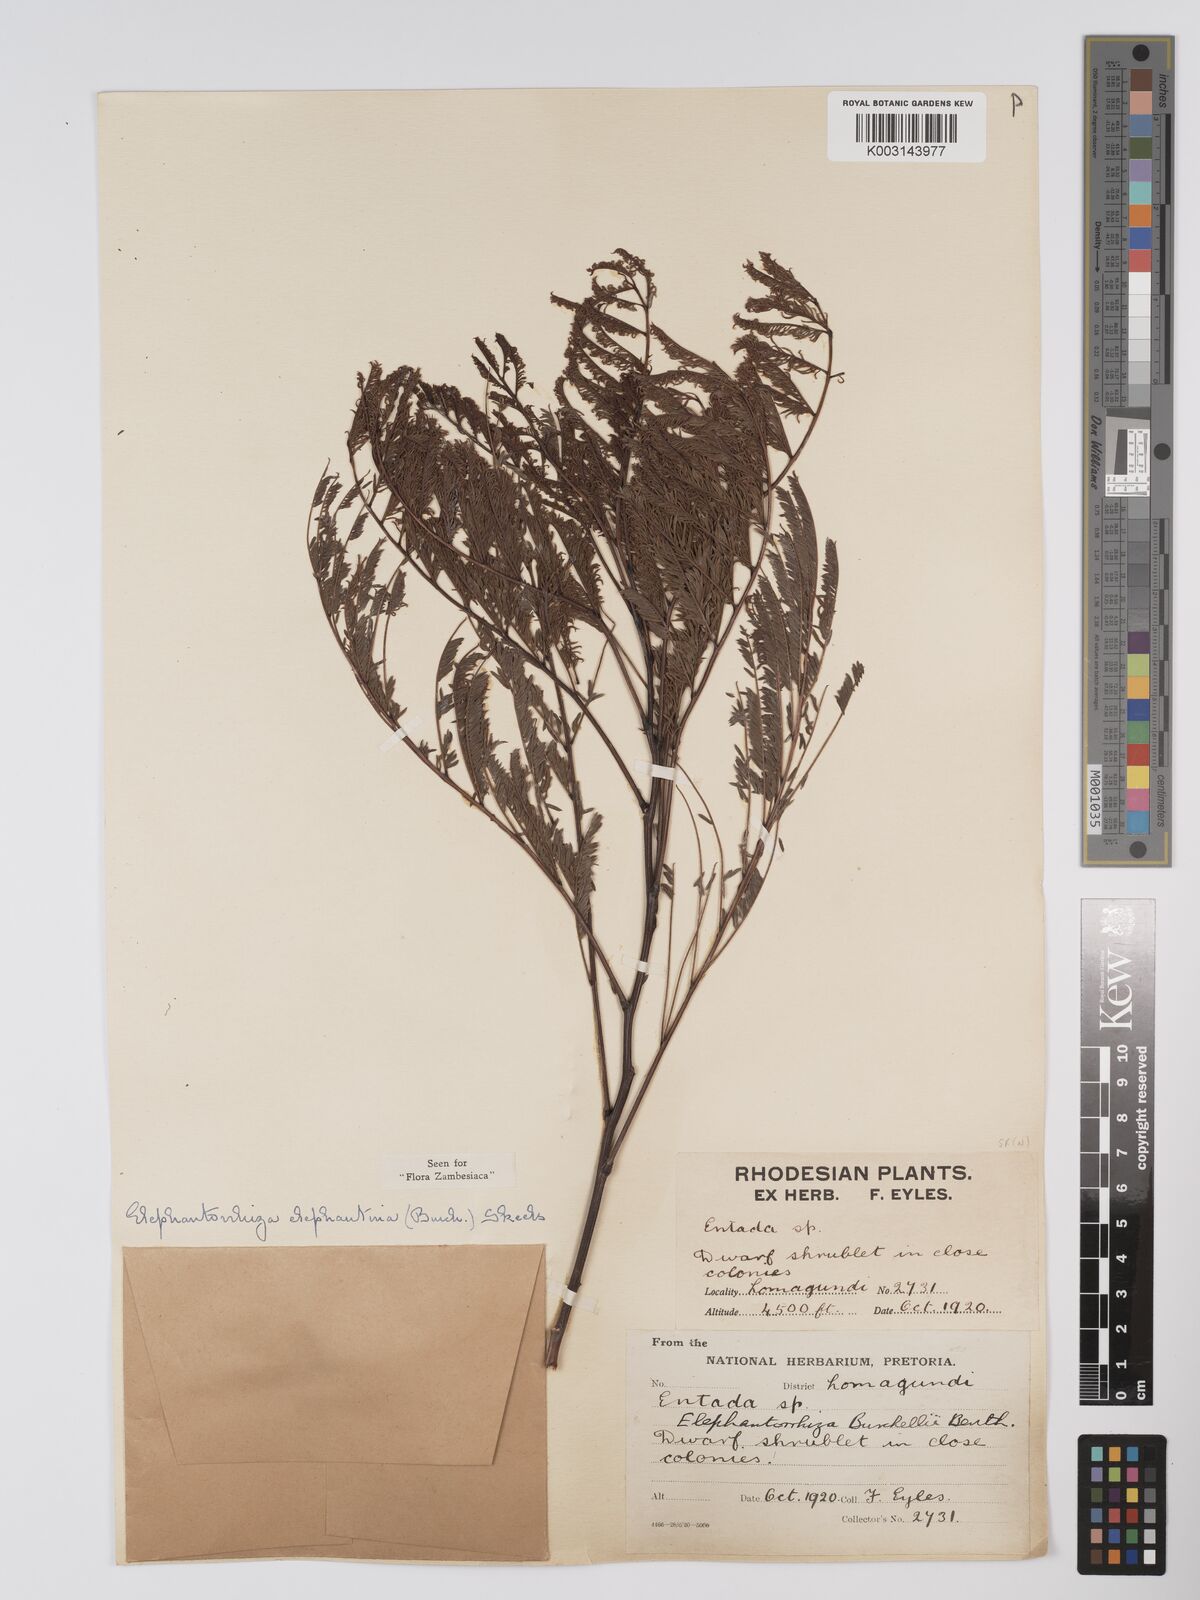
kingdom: Plantae
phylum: Tracheophyta
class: Magnoliopsida
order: Fabales
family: Fabaceae
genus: Elephantorrhiza
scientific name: Elephantorrhiza elephantina
